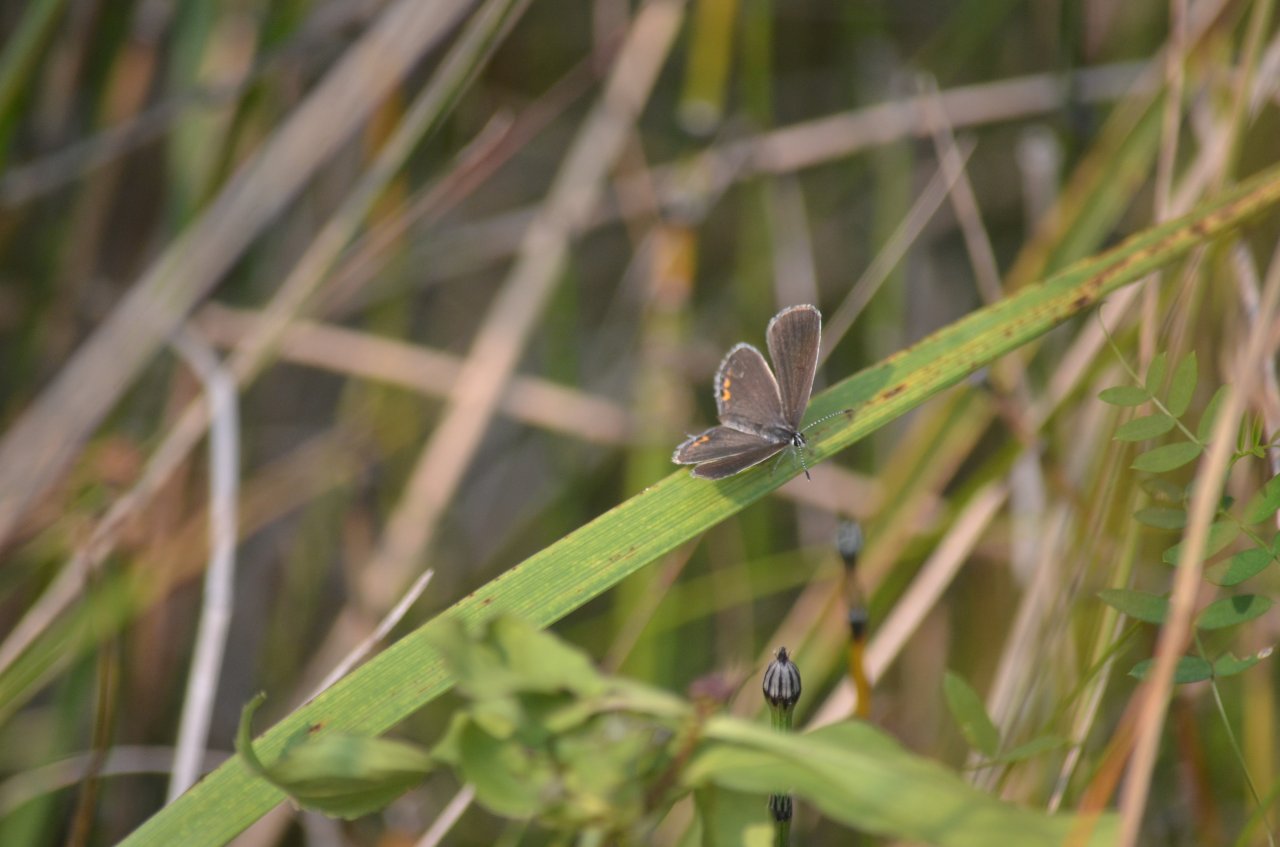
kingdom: Animalia
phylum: Arthropoda
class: Insecta
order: Lepidoptera
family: Lycaenidae
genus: Elkalyce
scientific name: Elkalyce comyntas
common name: Eastern Tailed-Blue
